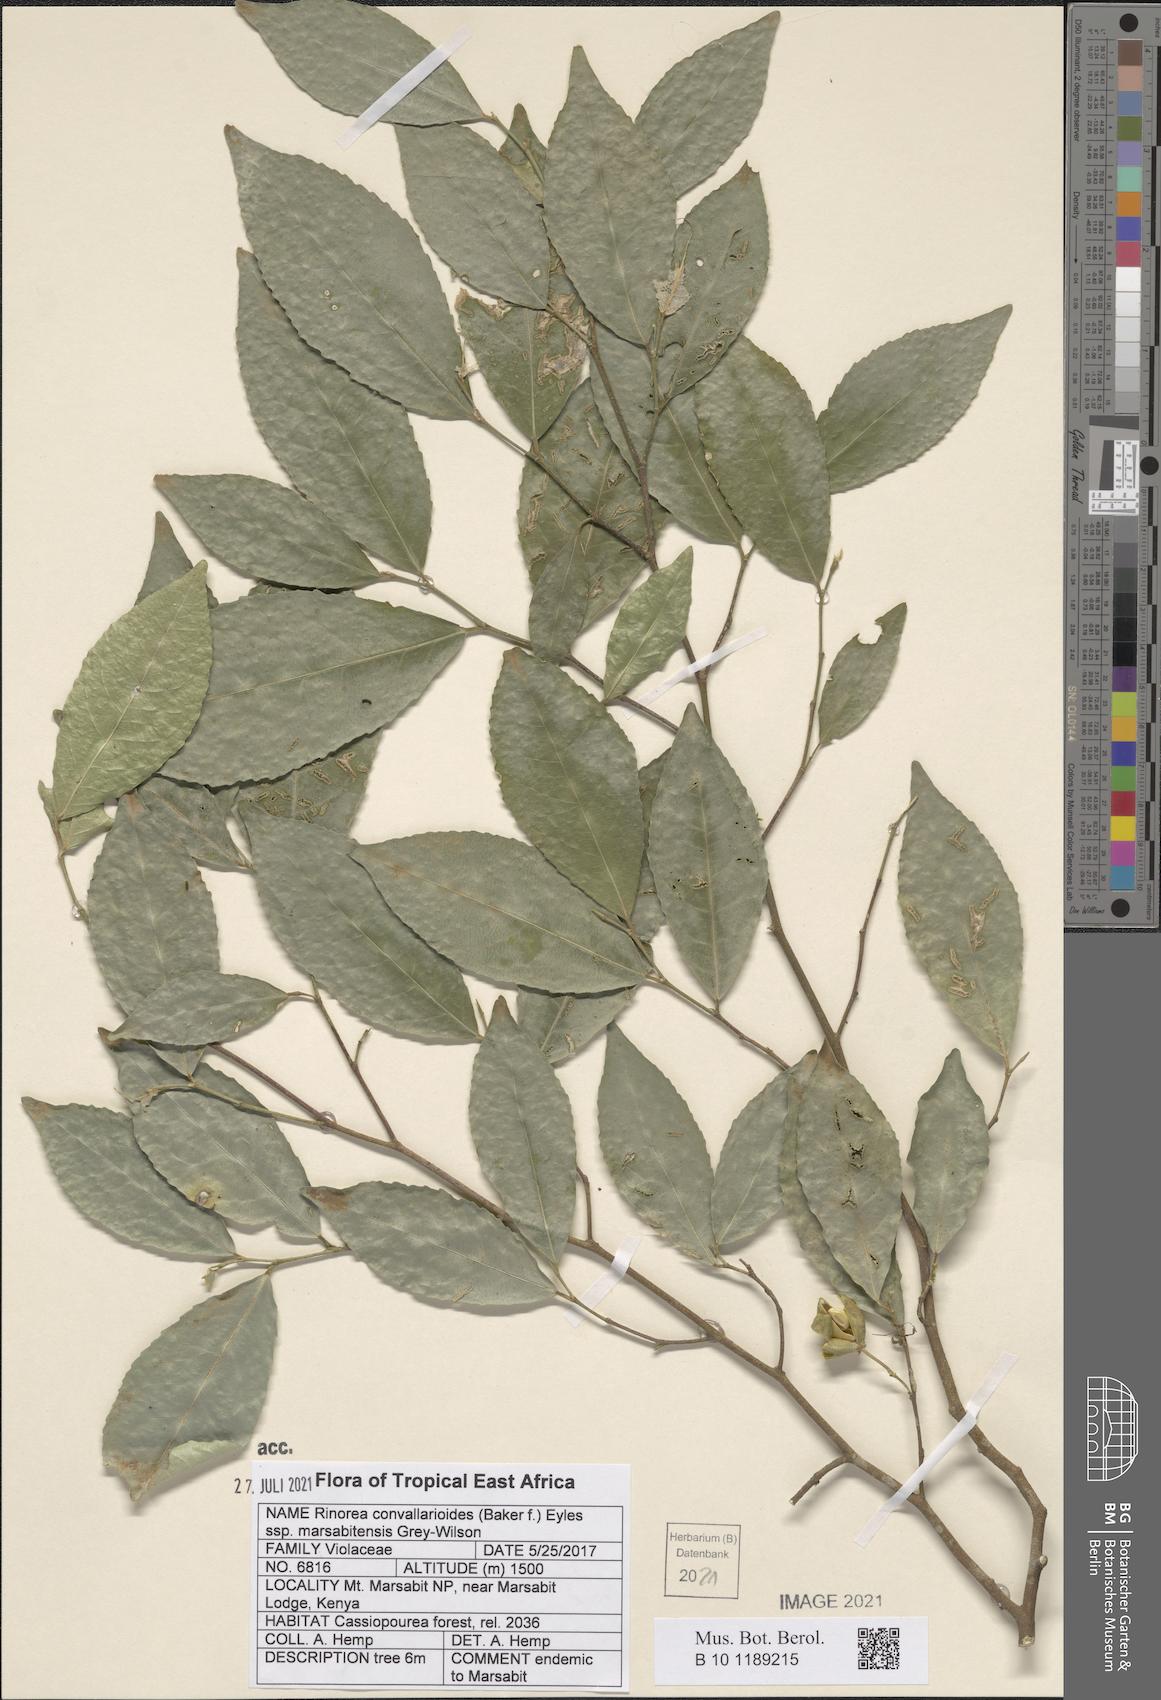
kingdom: Plantae
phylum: Tracheophyta
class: Magnoliopsida
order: Malpighiales
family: Violaceae
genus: Rinorea
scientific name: Rinorea convallarioides
